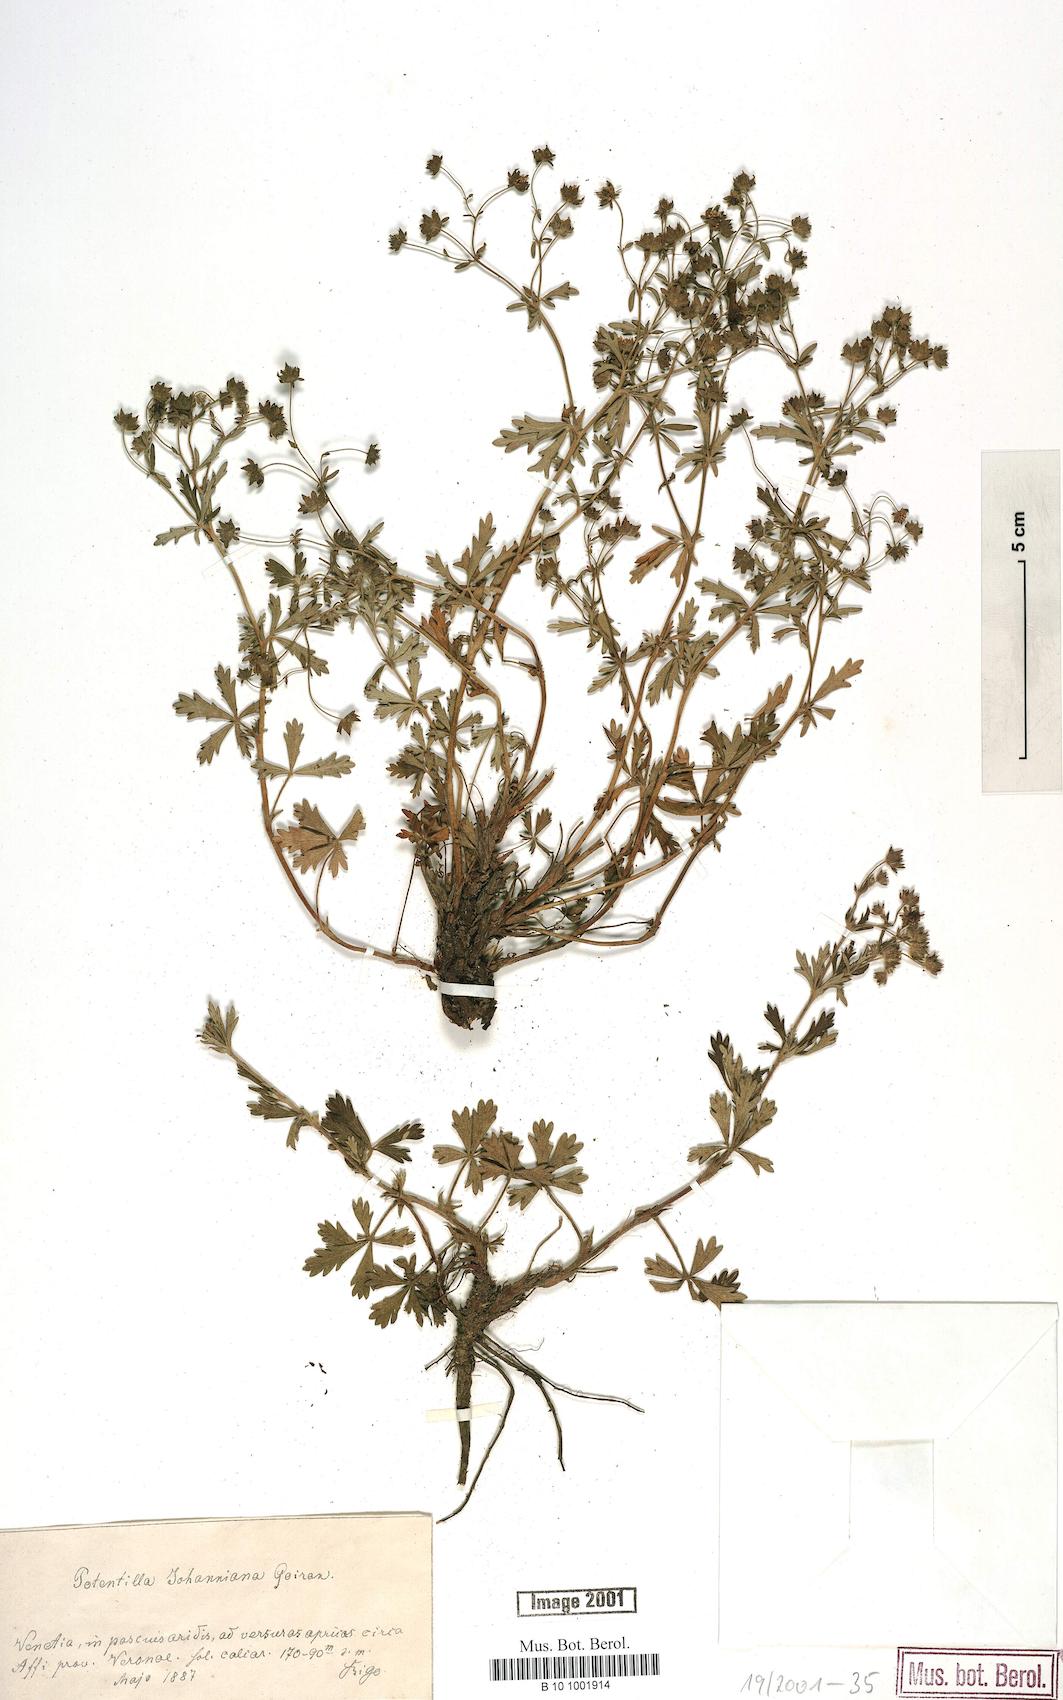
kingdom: Plantae
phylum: Tracheophyta
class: Magnoliopsida
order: Rosales
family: Rosaceae
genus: Potentilla
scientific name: Potentilla johanniniana
